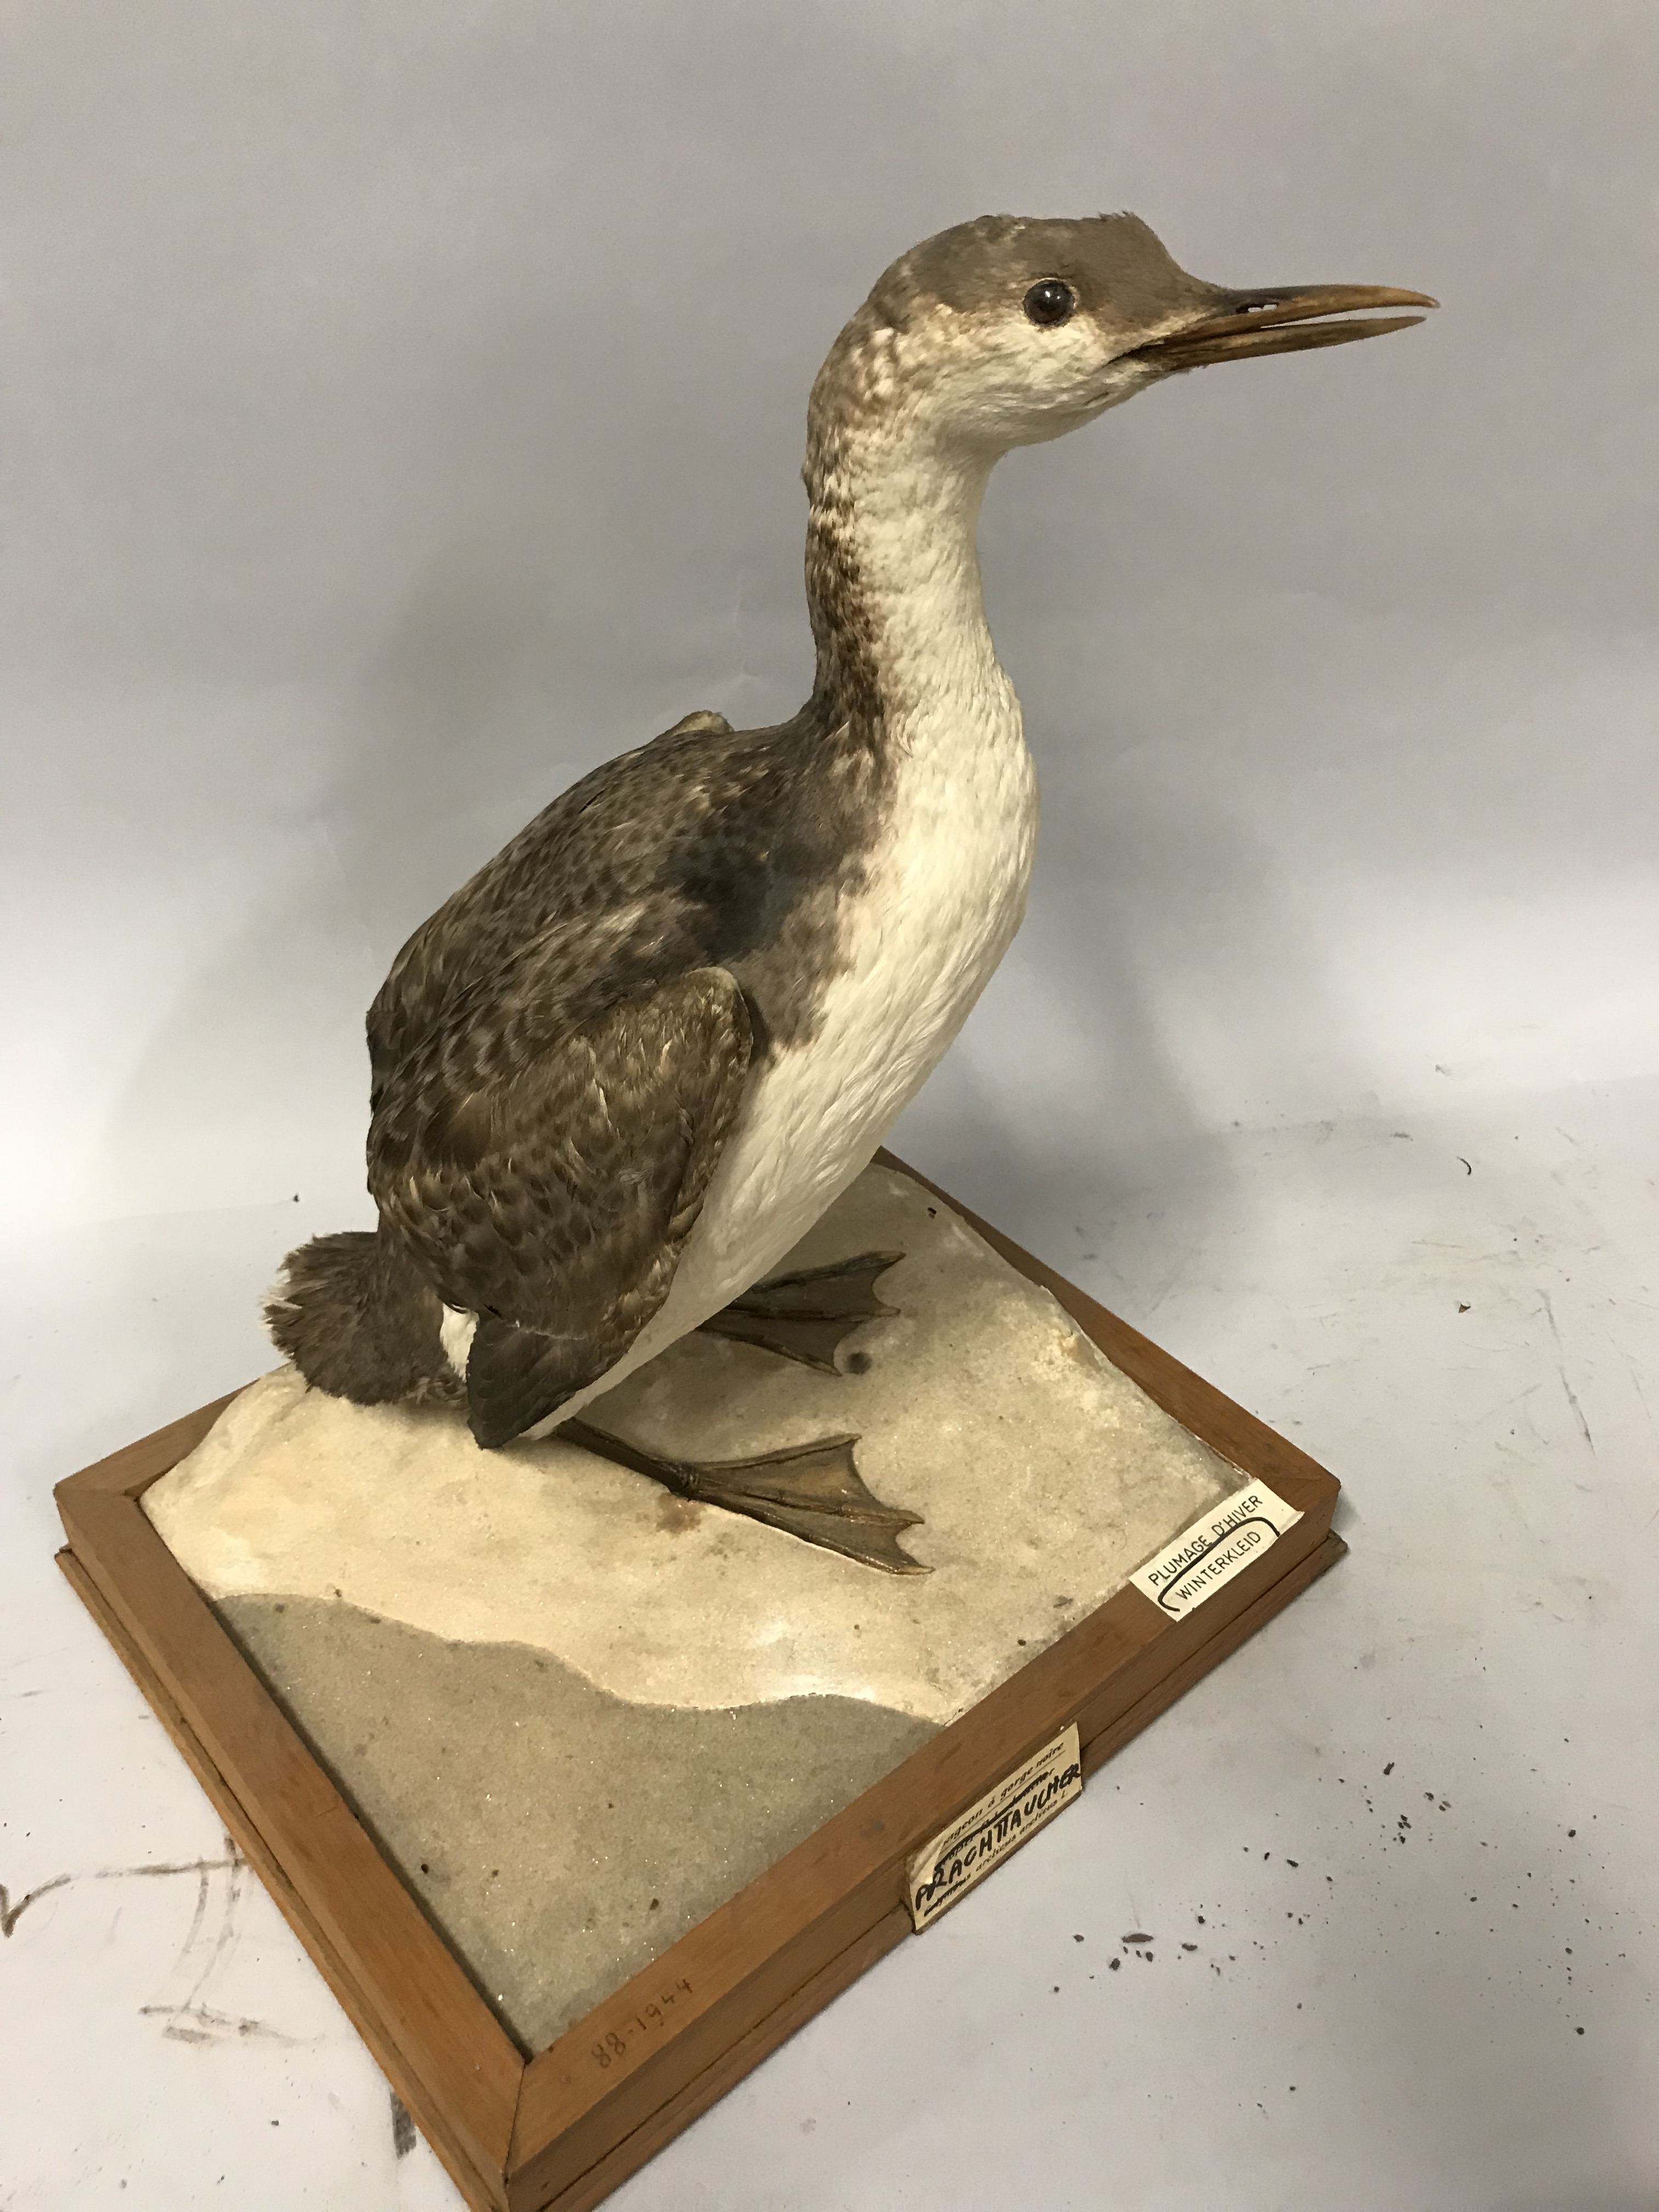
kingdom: Animalia
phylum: Chordata
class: Aves
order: Gaviiformes
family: Gaviidae
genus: Gavia
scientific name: Gavia arctica
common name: Black-throated loon
